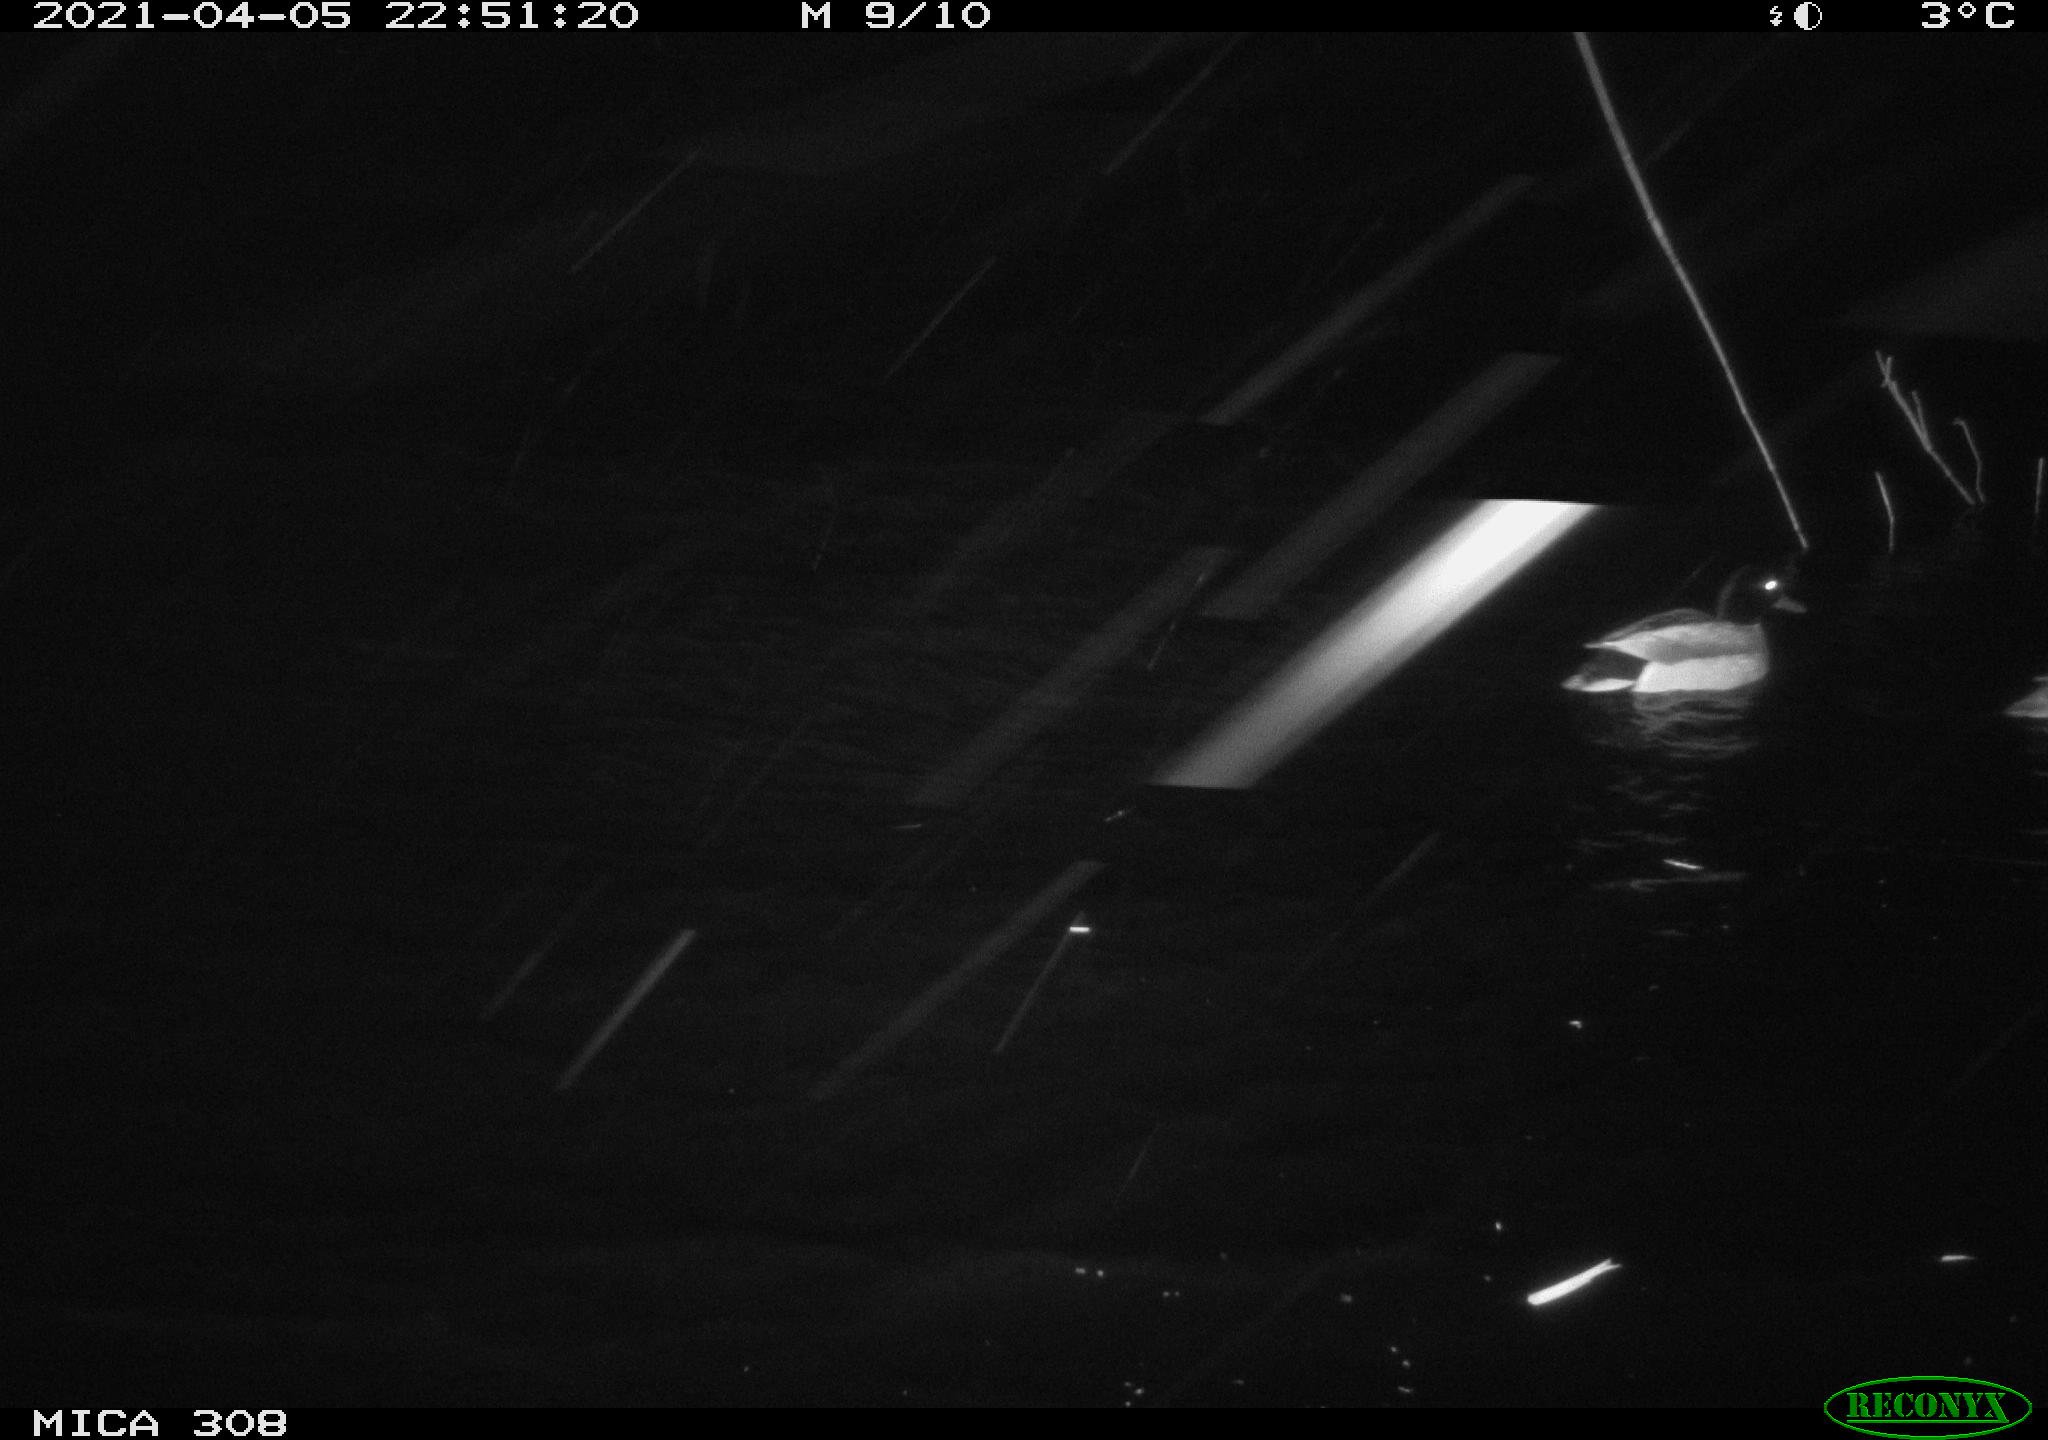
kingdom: Animalia
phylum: Chordata
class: Aves
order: Anseriformes
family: Anatidae
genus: Anas
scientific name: Anas platyrhynchos
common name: Mallard
